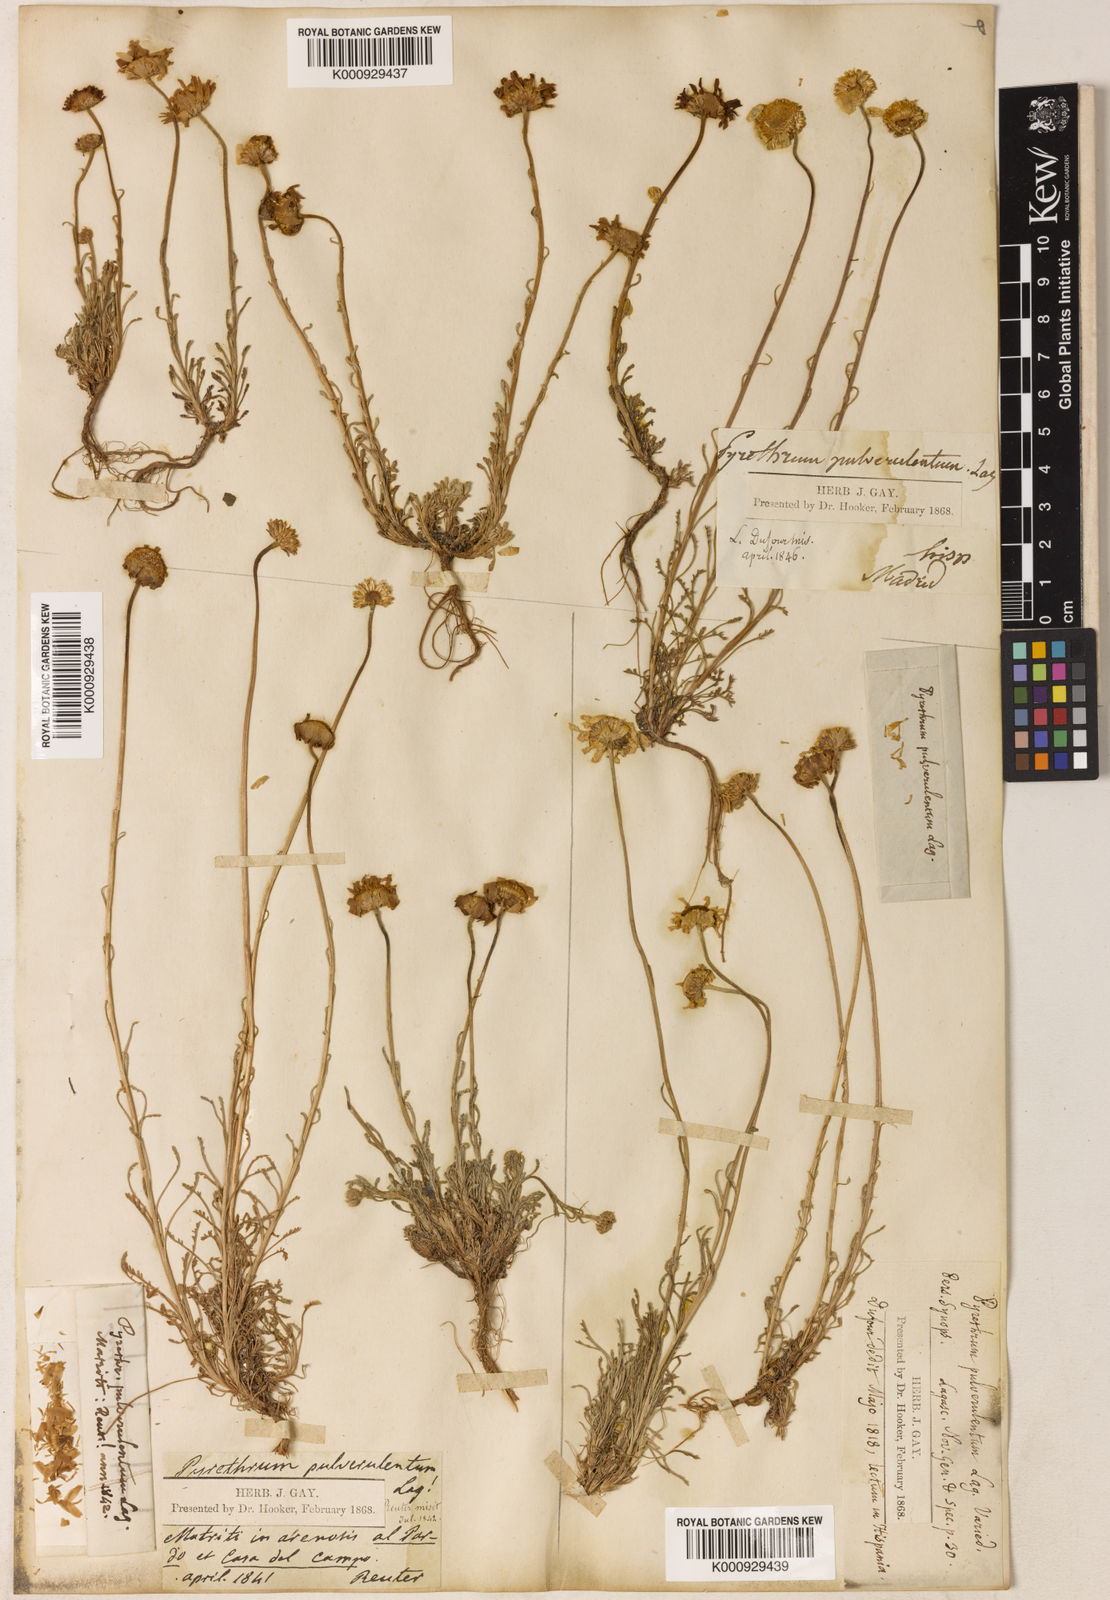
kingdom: Plantae
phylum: Tracheophyta
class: Magnoliopsida
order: Asterales
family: Asteraceae
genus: Leucanthemopsis
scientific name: Leucanthemopsis pulverulenta
